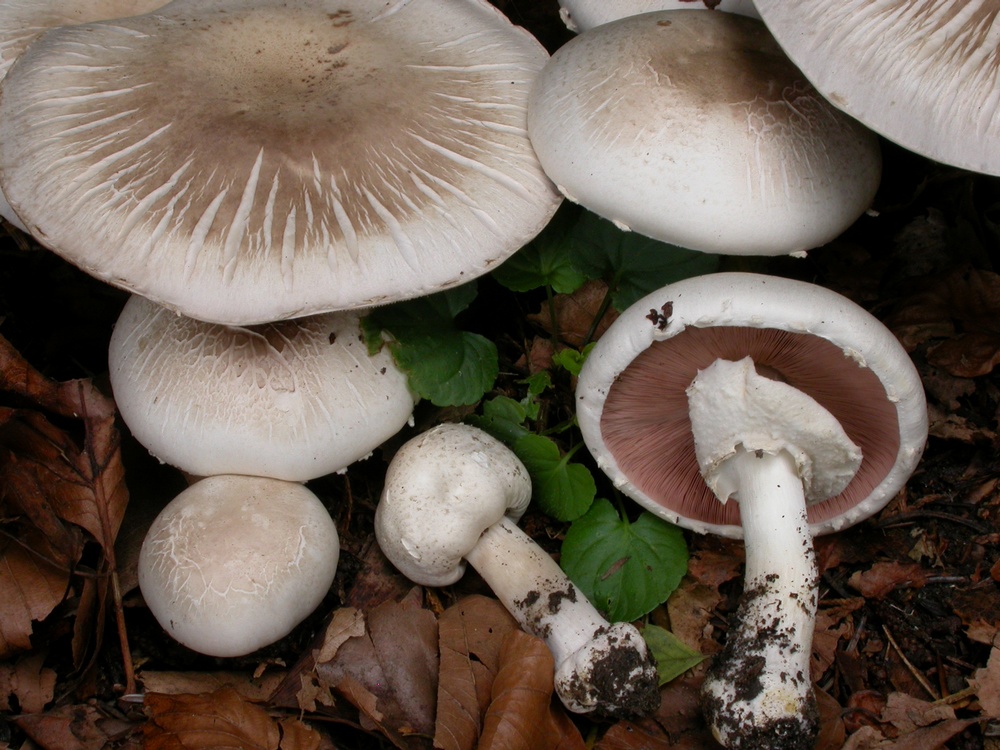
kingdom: Fungi
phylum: Basidiomycota
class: Agaricomycetes
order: Agaricales
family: Agaricaceae
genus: Agaricus
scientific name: Agaricus xanthodermus
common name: karbol-champignon
